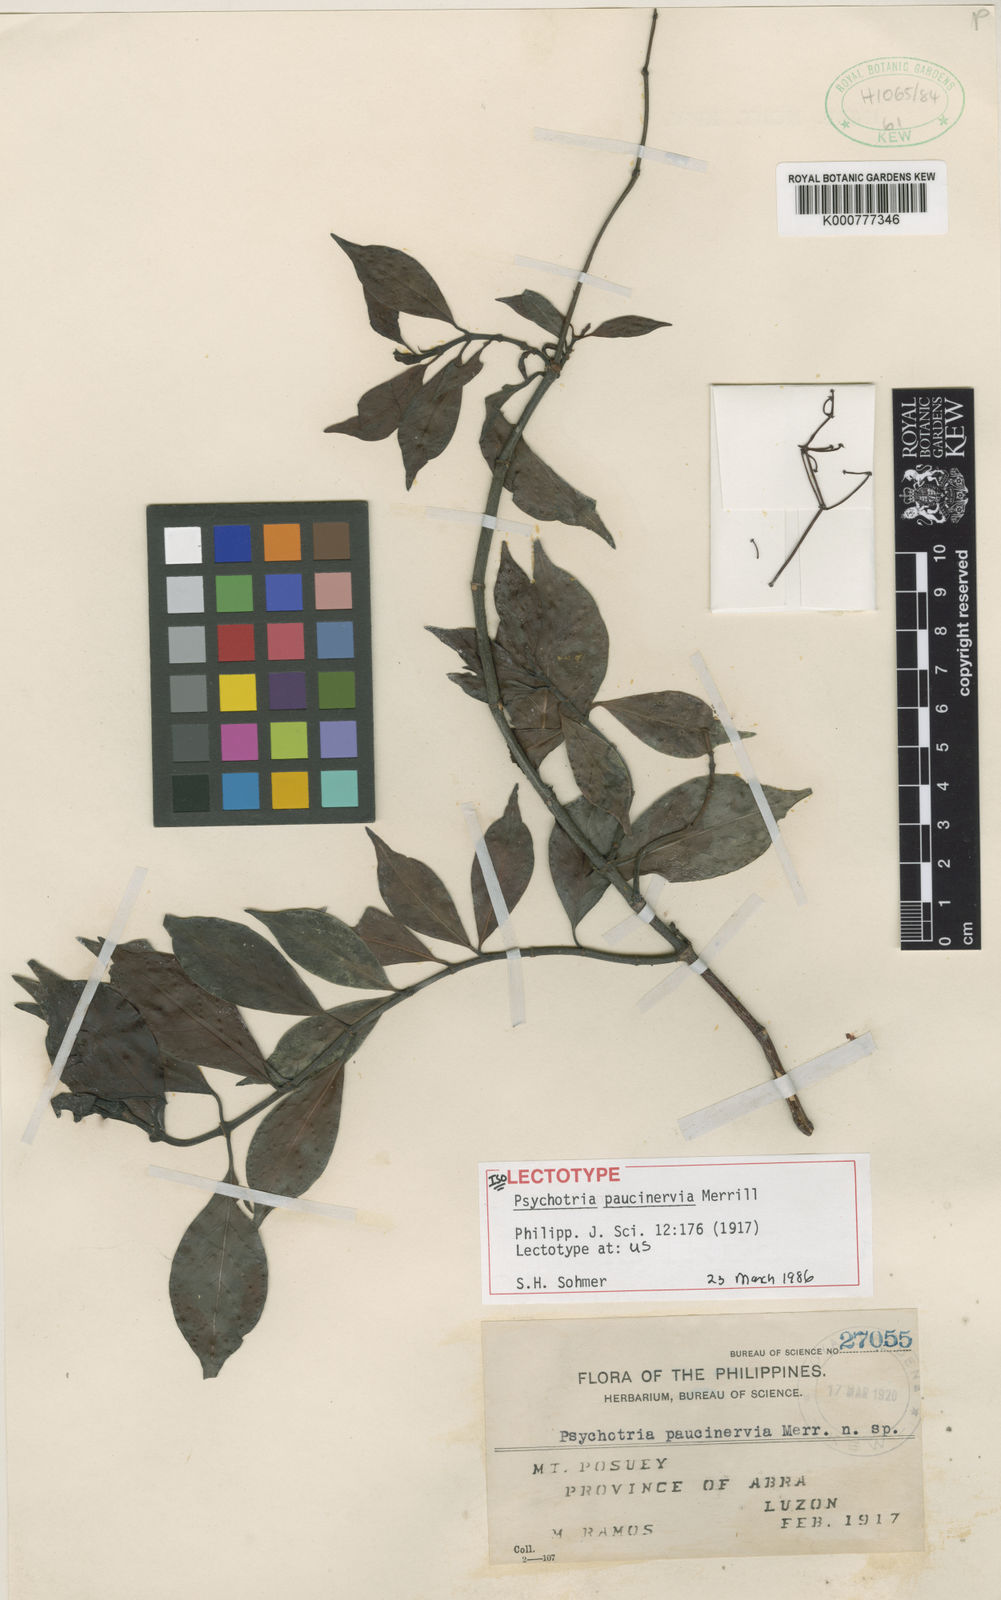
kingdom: Plantae
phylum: Tracheophyta
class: Magnoliopsida
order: Gentianales
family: Rubiaceae
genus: Psychotria
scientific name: Psychotria paucinervia
